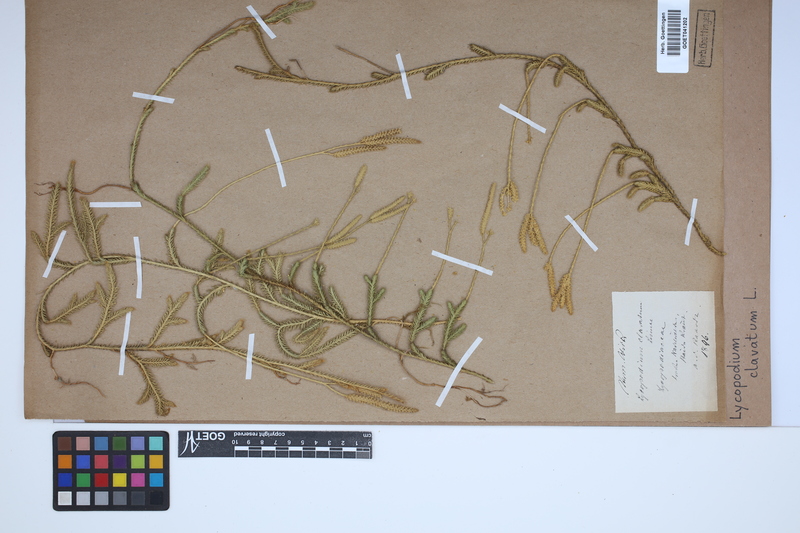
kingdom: Plantae
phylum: Tracheophyta
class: Lycopodiopsida
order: Lycopodiales
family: Lycopodiaceae
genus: Lycopodium
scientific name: Lycopodium clavatum
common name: Stag's-horn clubmoss
